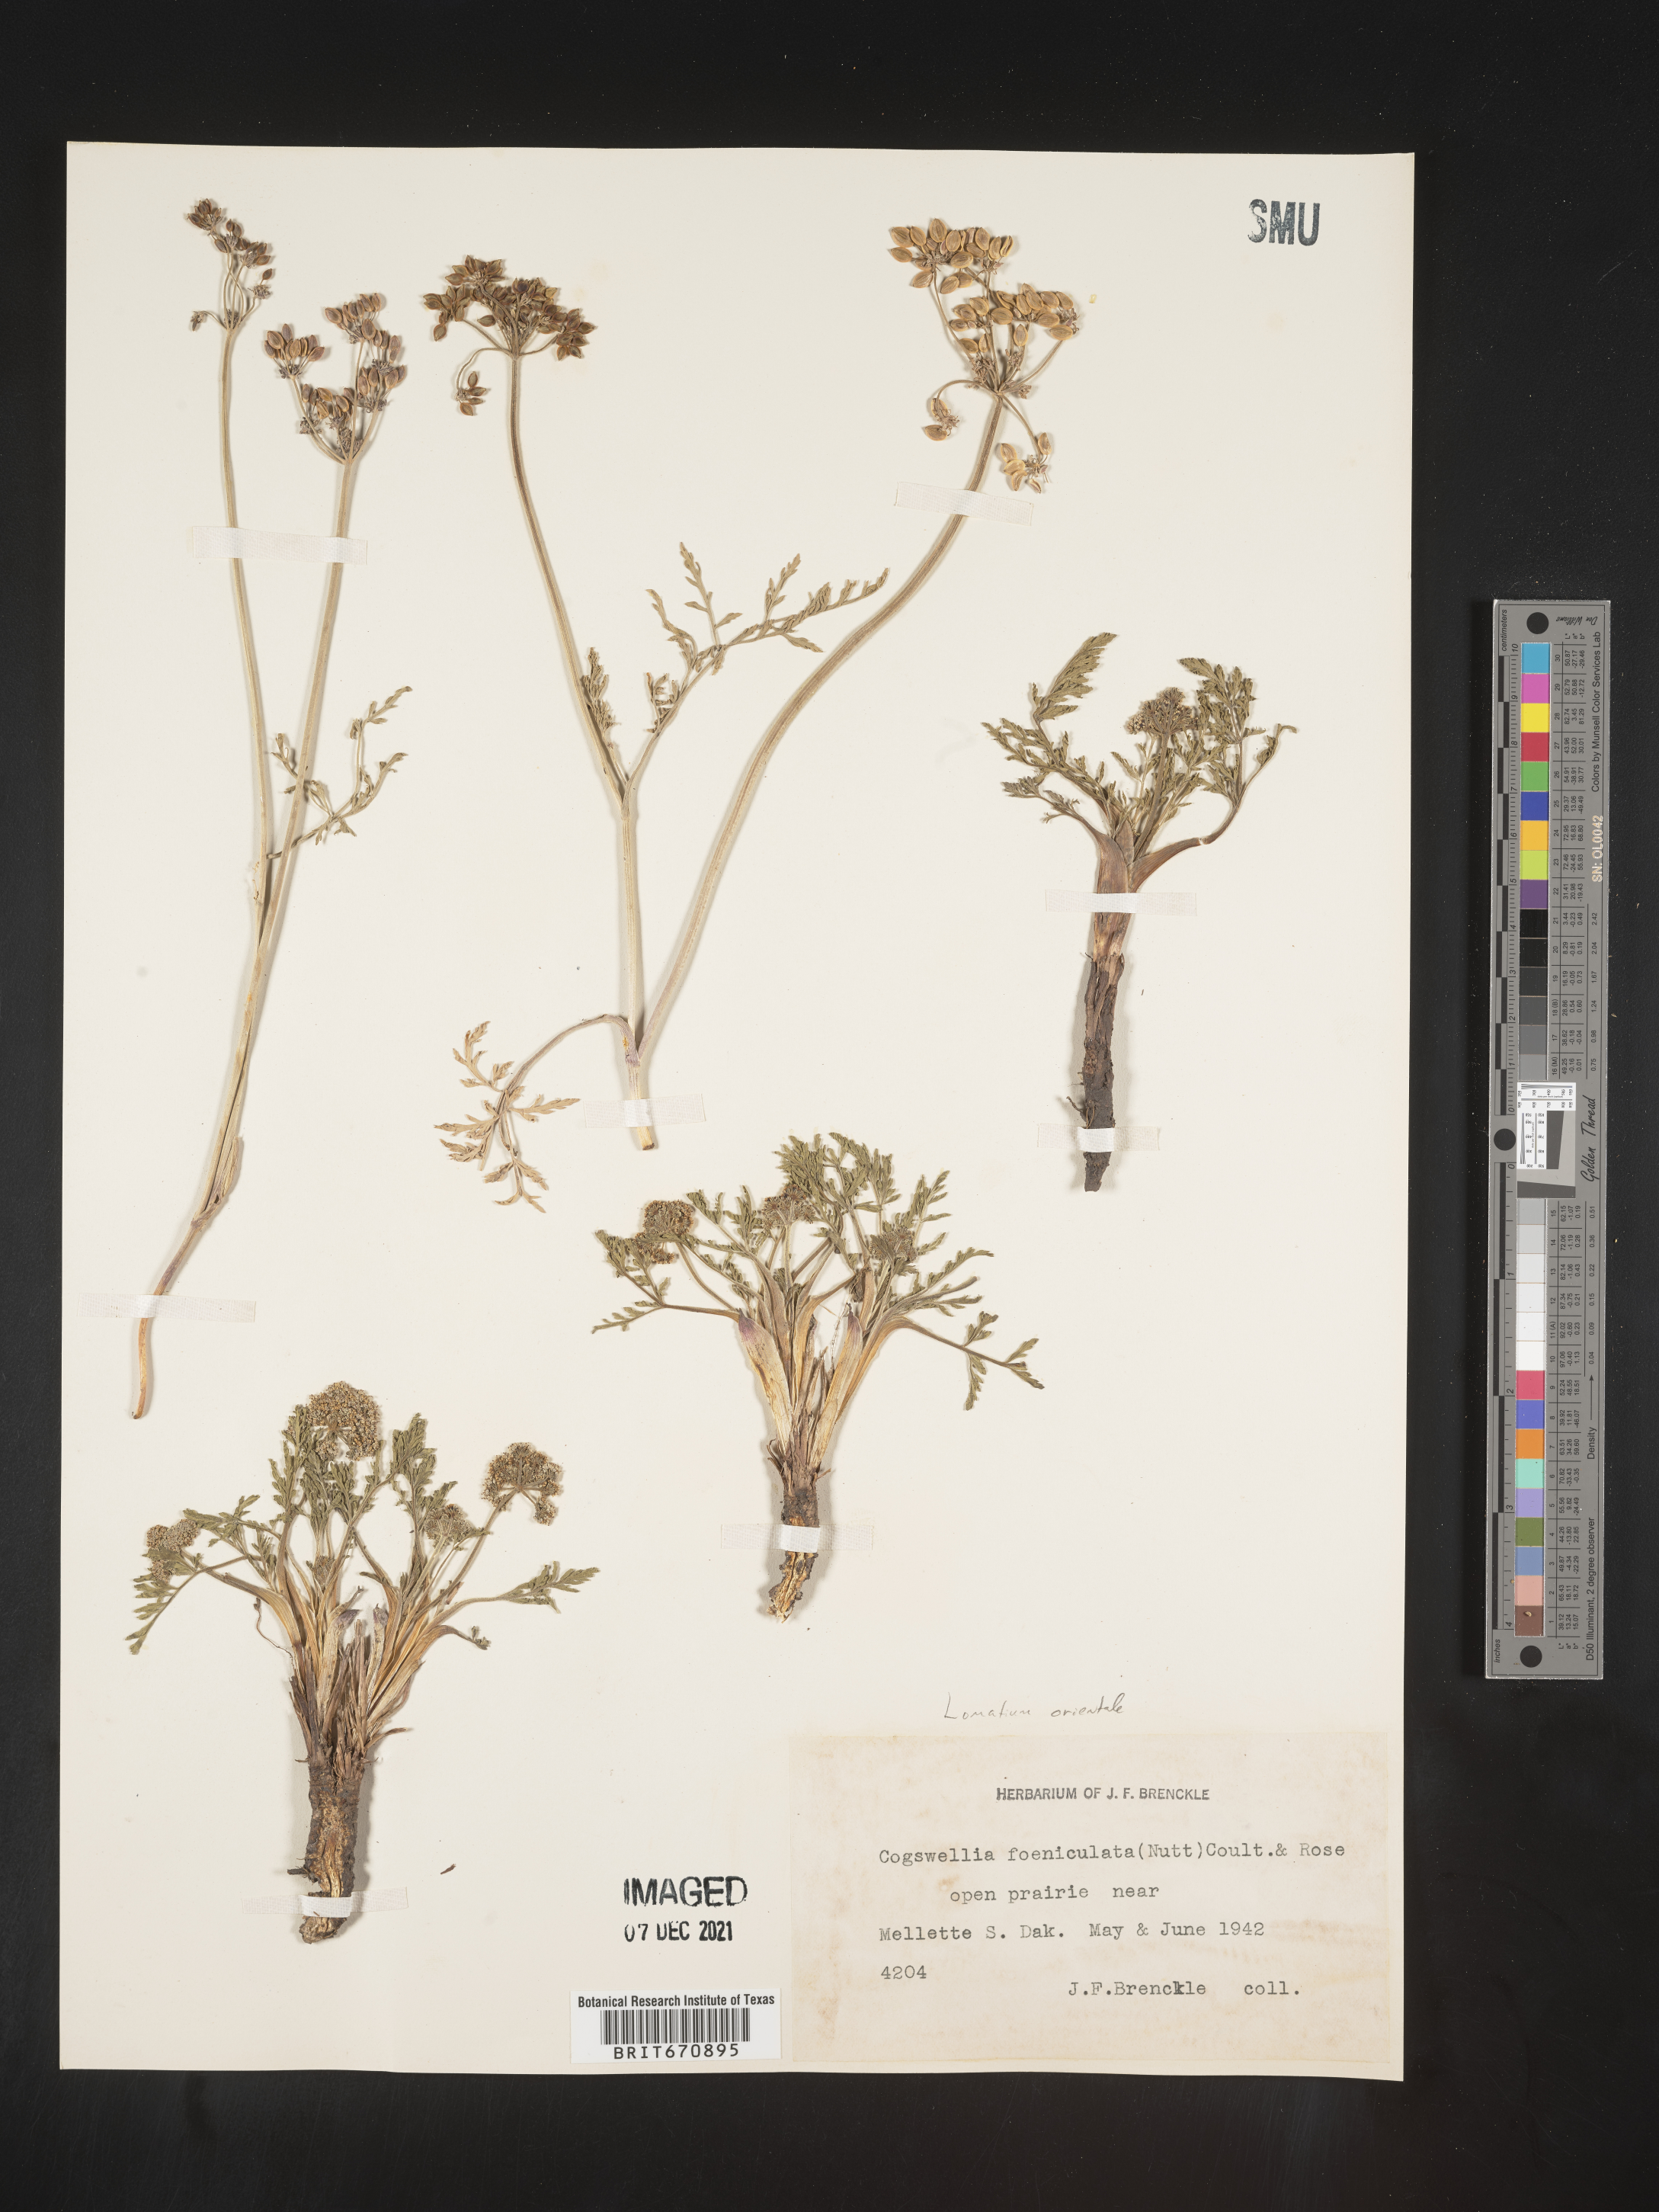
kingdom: Plantae
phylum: Tracheophyta
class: Magnoliopsida
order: Apiales
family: Apiaceae
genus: Lomatium
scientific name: Lomatium
